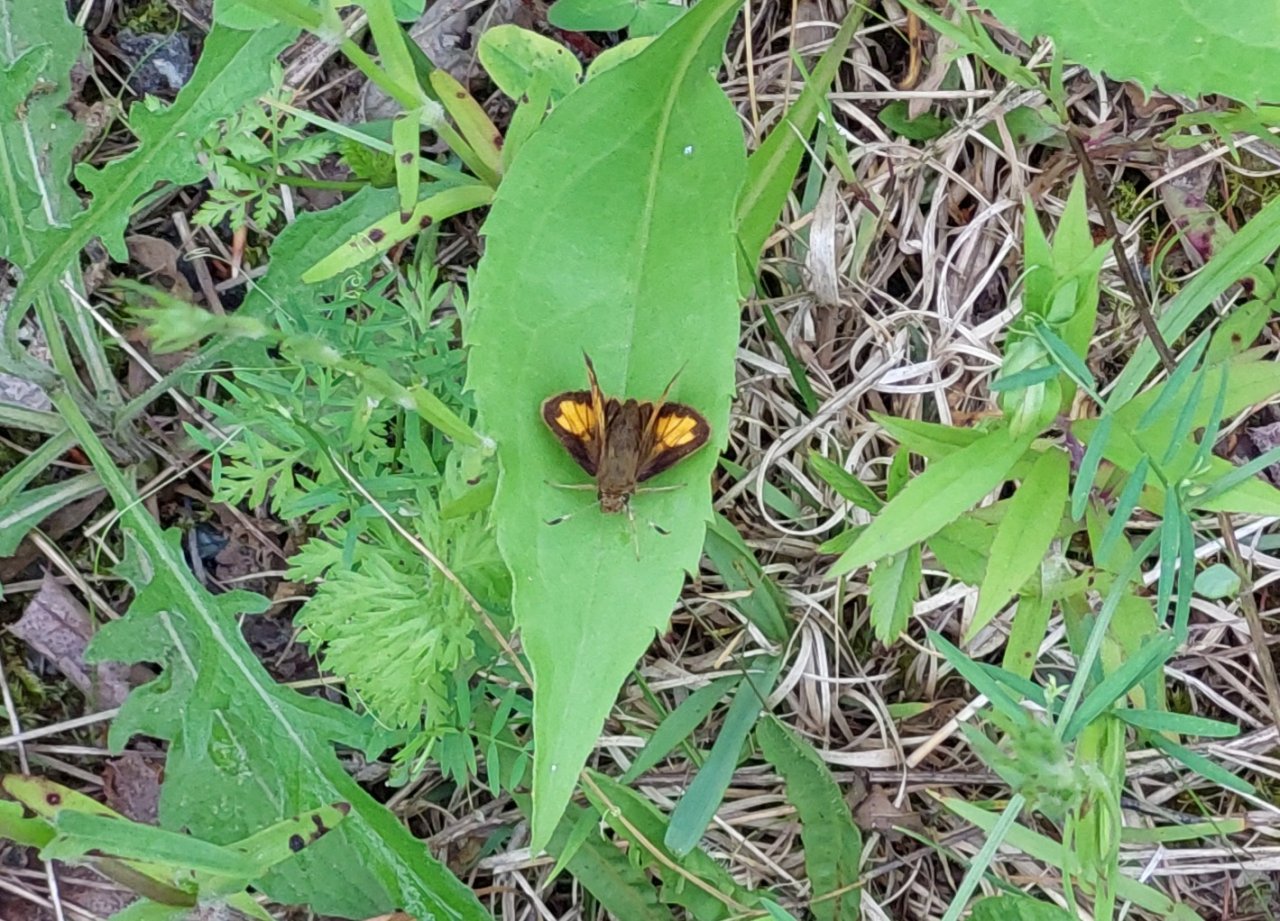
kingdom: Animalia
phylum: Arthropoda
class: Insecta
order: Lepidoptera
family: Hesperiidae
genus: Lon
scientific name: Lon hobomok
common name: Hobomok Skipper
